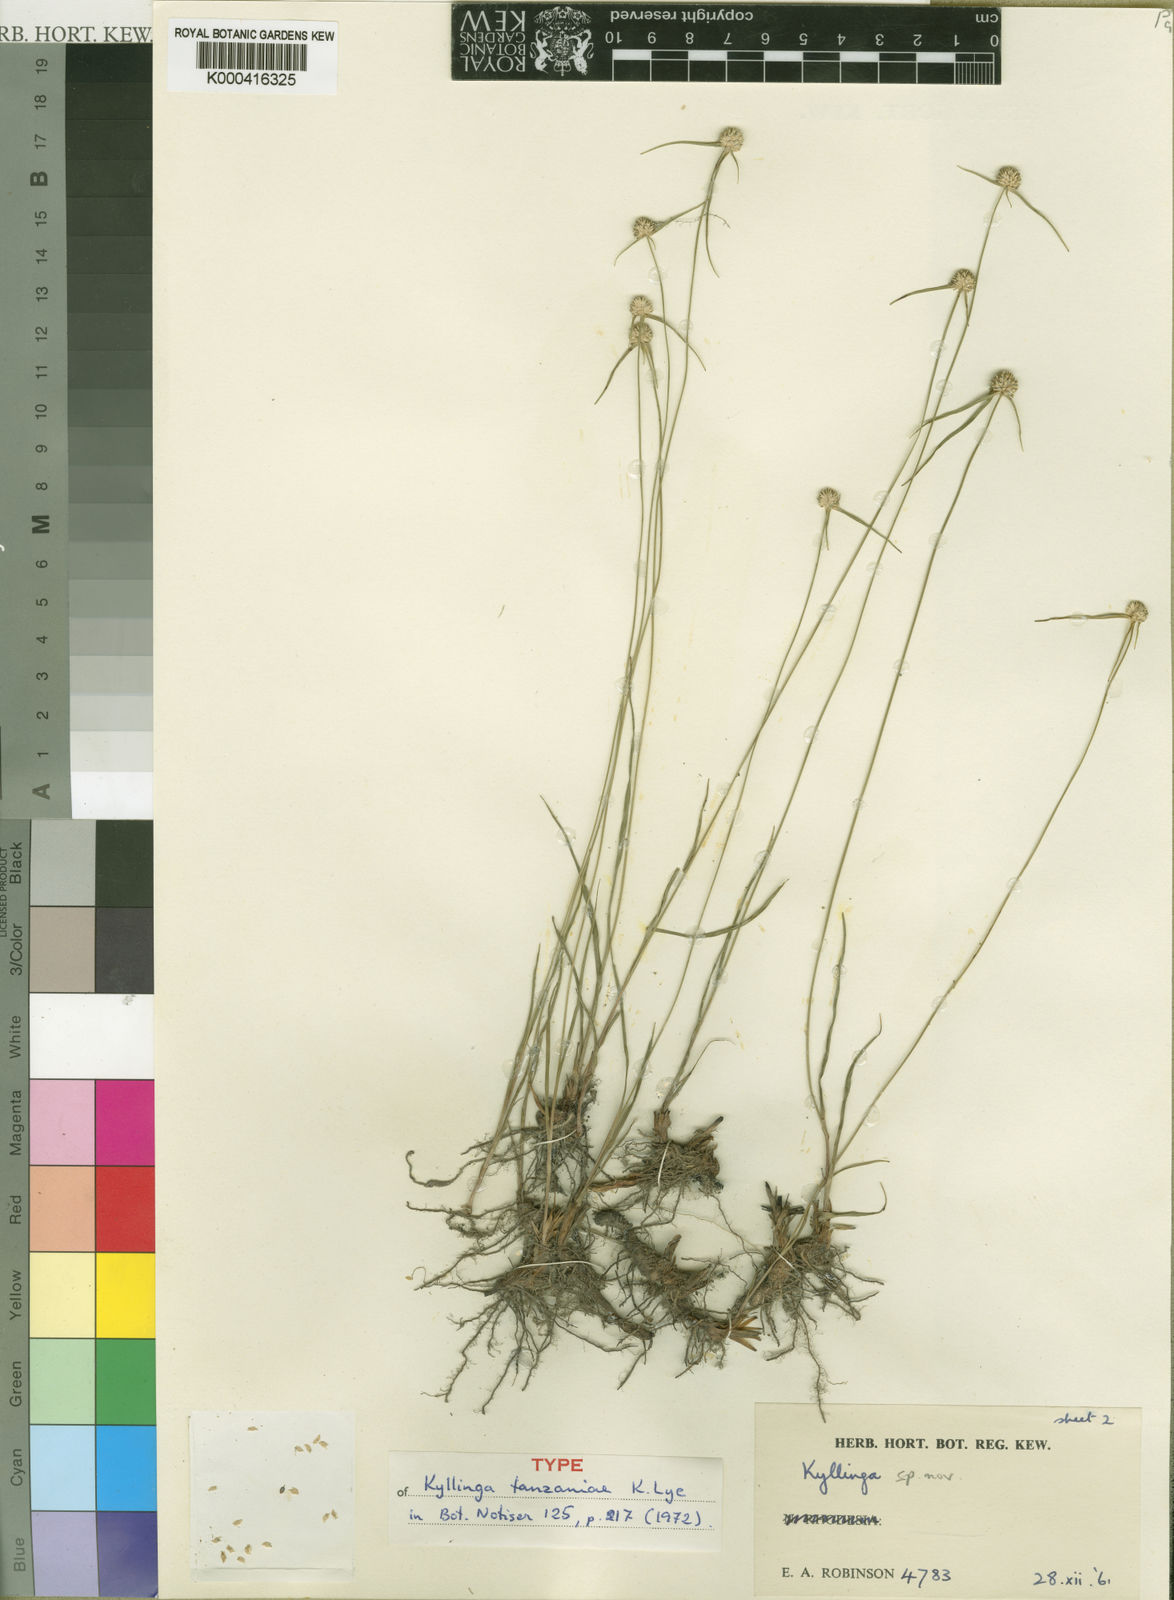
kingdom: Plantae
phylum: Tracheophyta
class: Liliopsida
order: Poales
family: Cyperaceae
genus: Cyperus
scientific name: Cyperus tanzaniae
